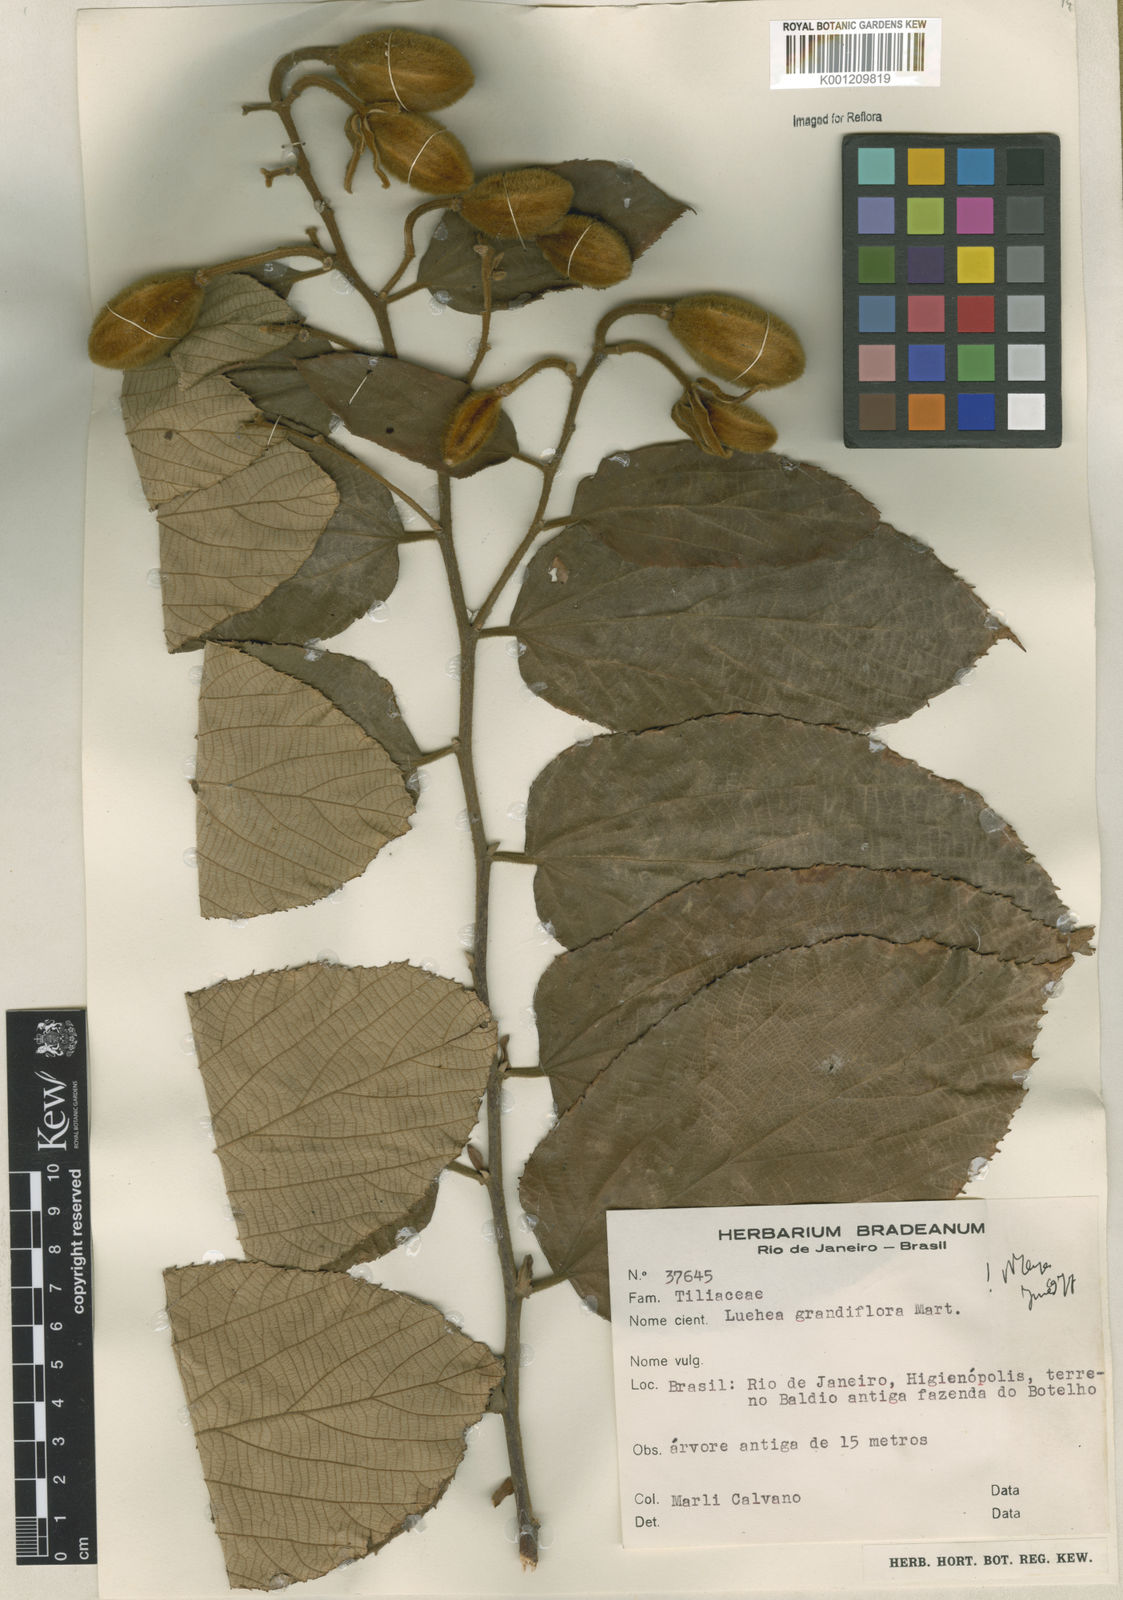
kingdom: Plantae
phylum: Tracheophyta
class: Magnoliopsida
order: Malvales
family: Malvaceae
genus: Luehea
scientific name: Luehea grandiflora
